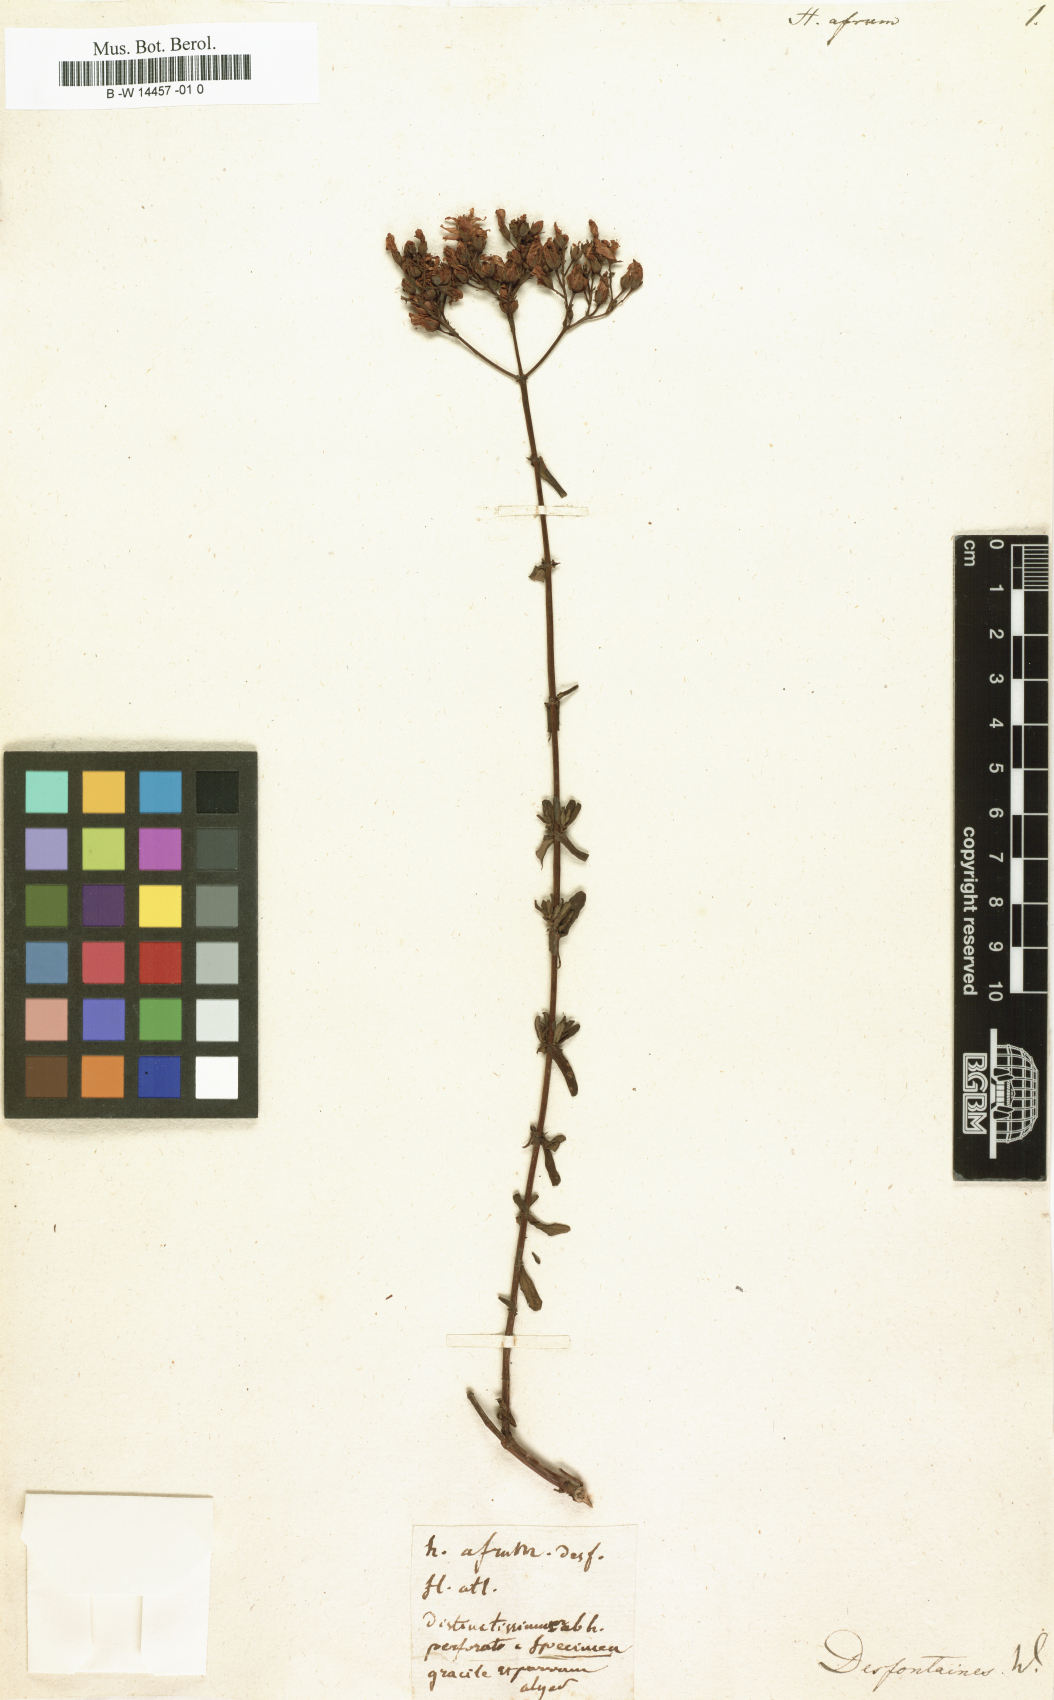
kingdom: Plantae
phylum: Tracheophyta
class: Magnoliopsida
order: Malpighiales
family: Hypericaceae
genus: Hypericum
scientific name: Hypericum afrum
